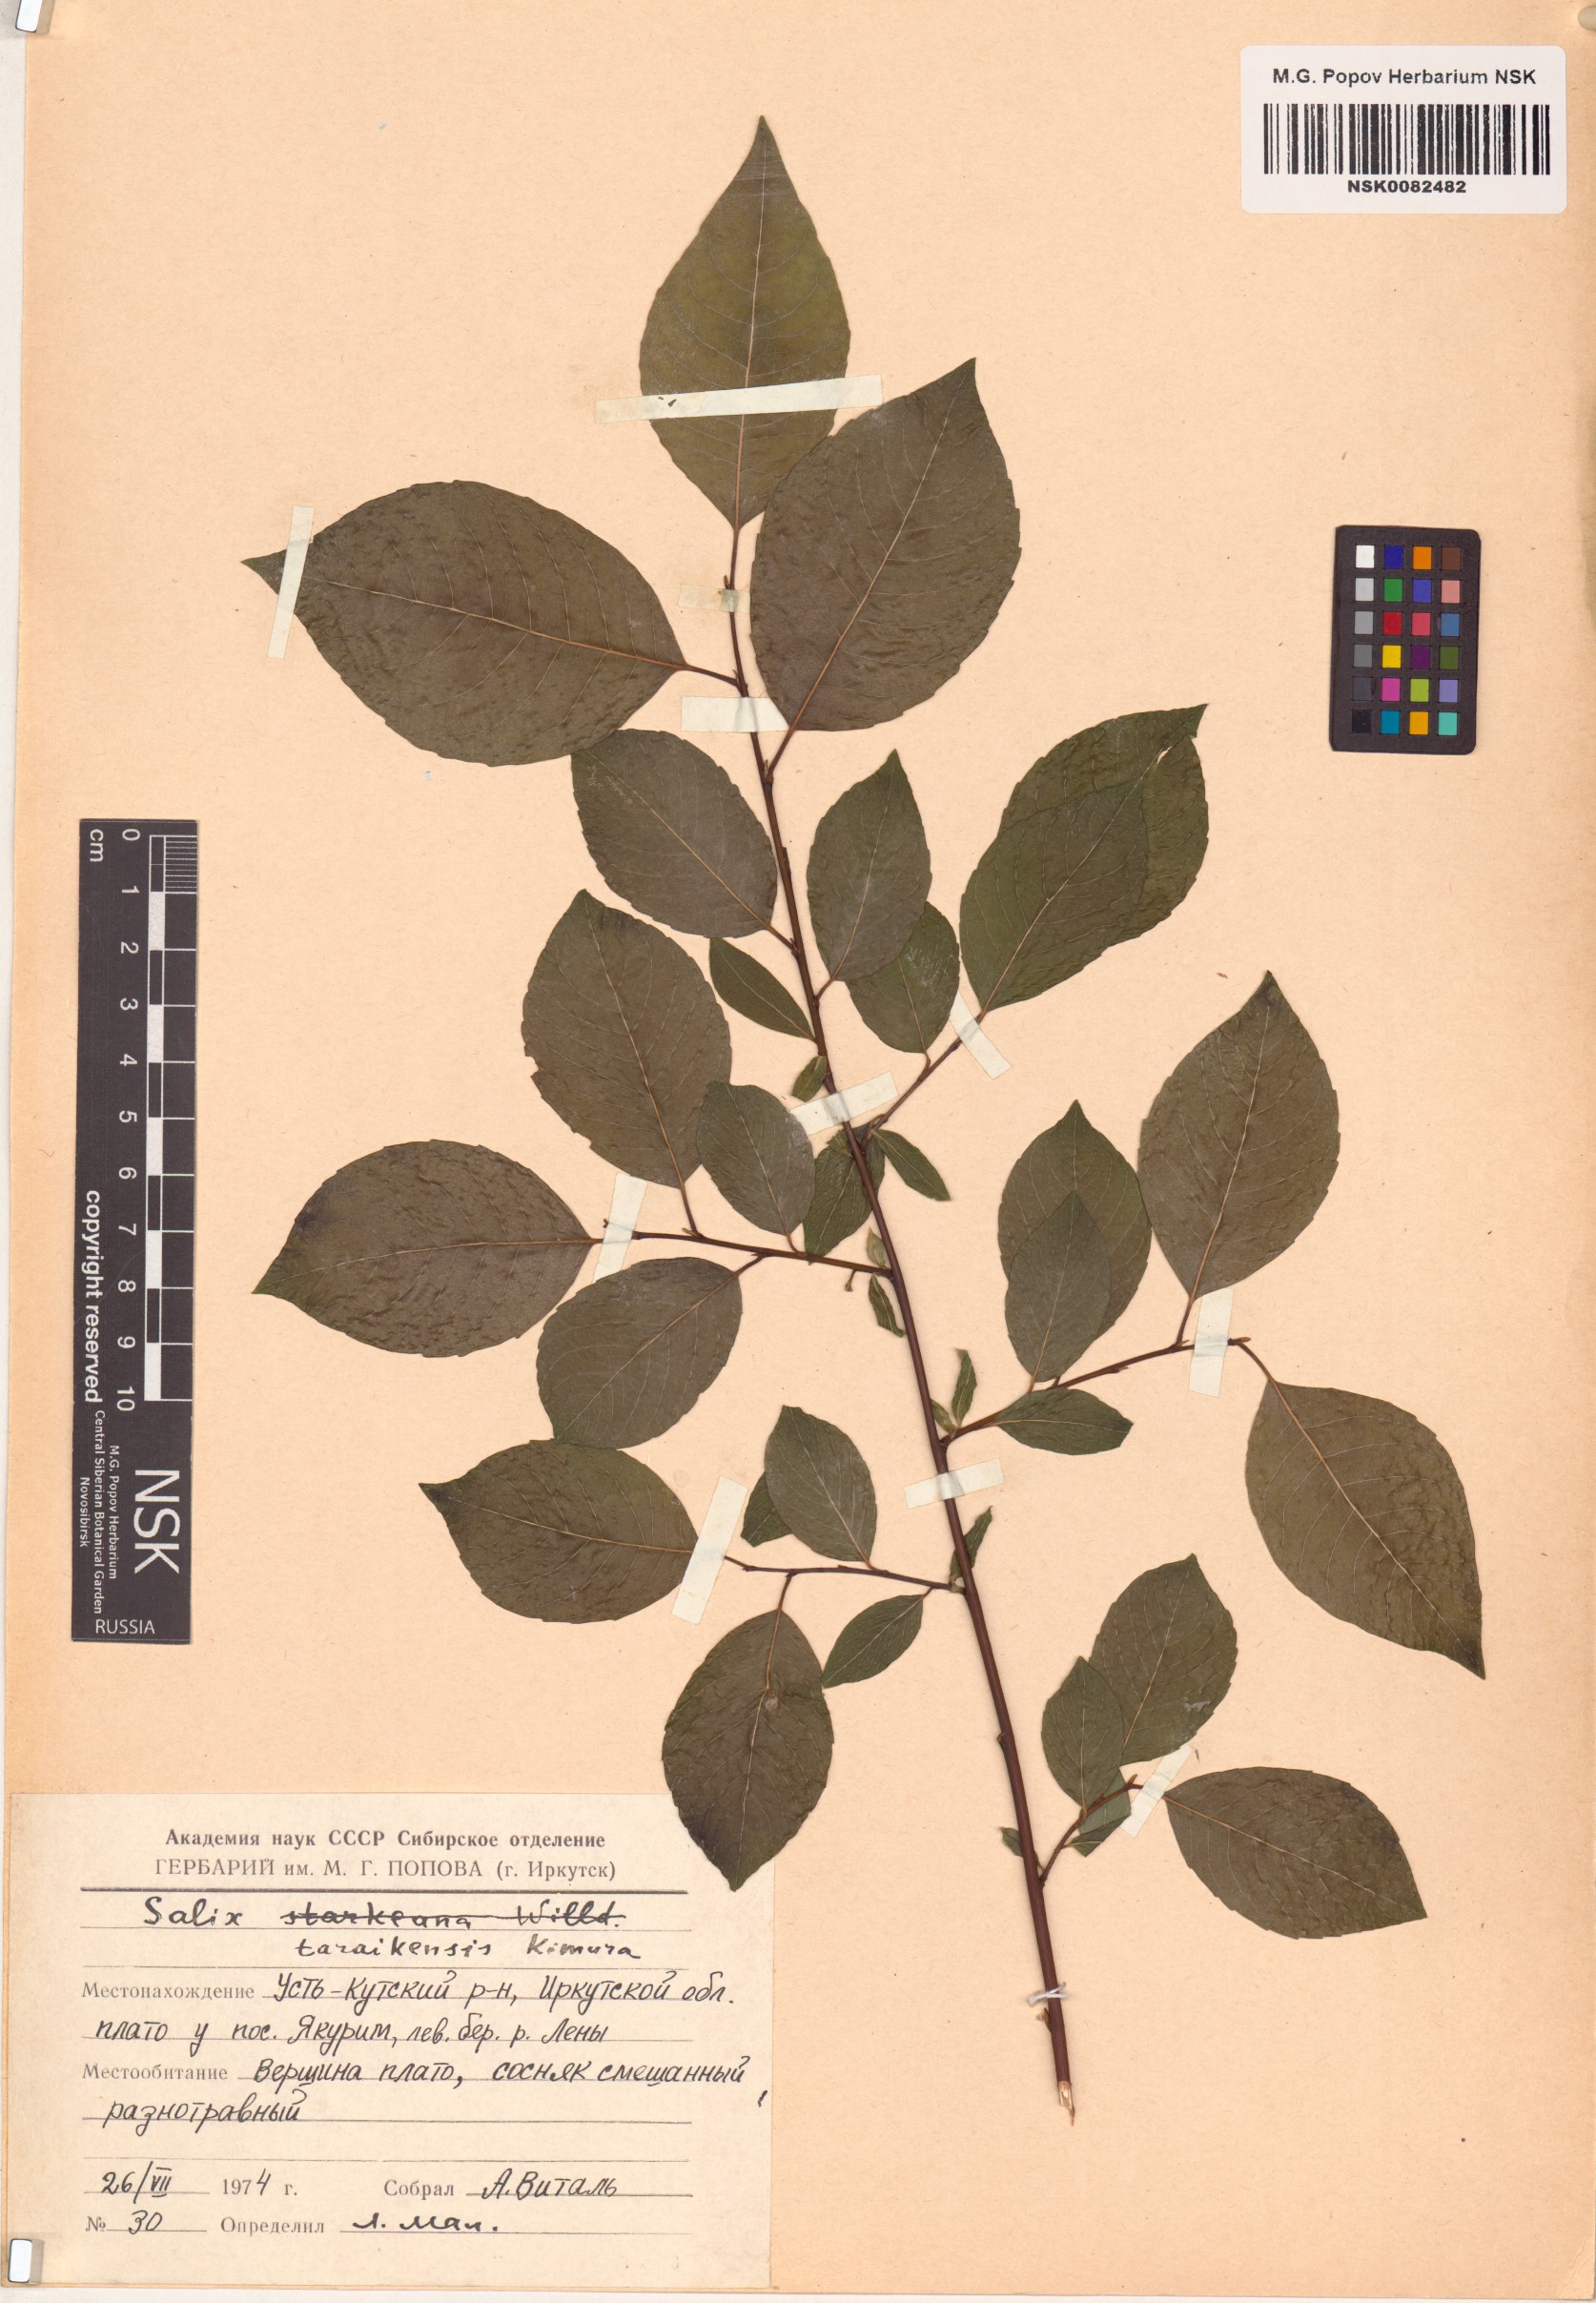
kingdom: Plantae
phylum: Tracheophyta
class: Magnoliopsida
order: Malpighiales
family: Salicaceae
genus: Salix
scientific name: Salix taraikensis
